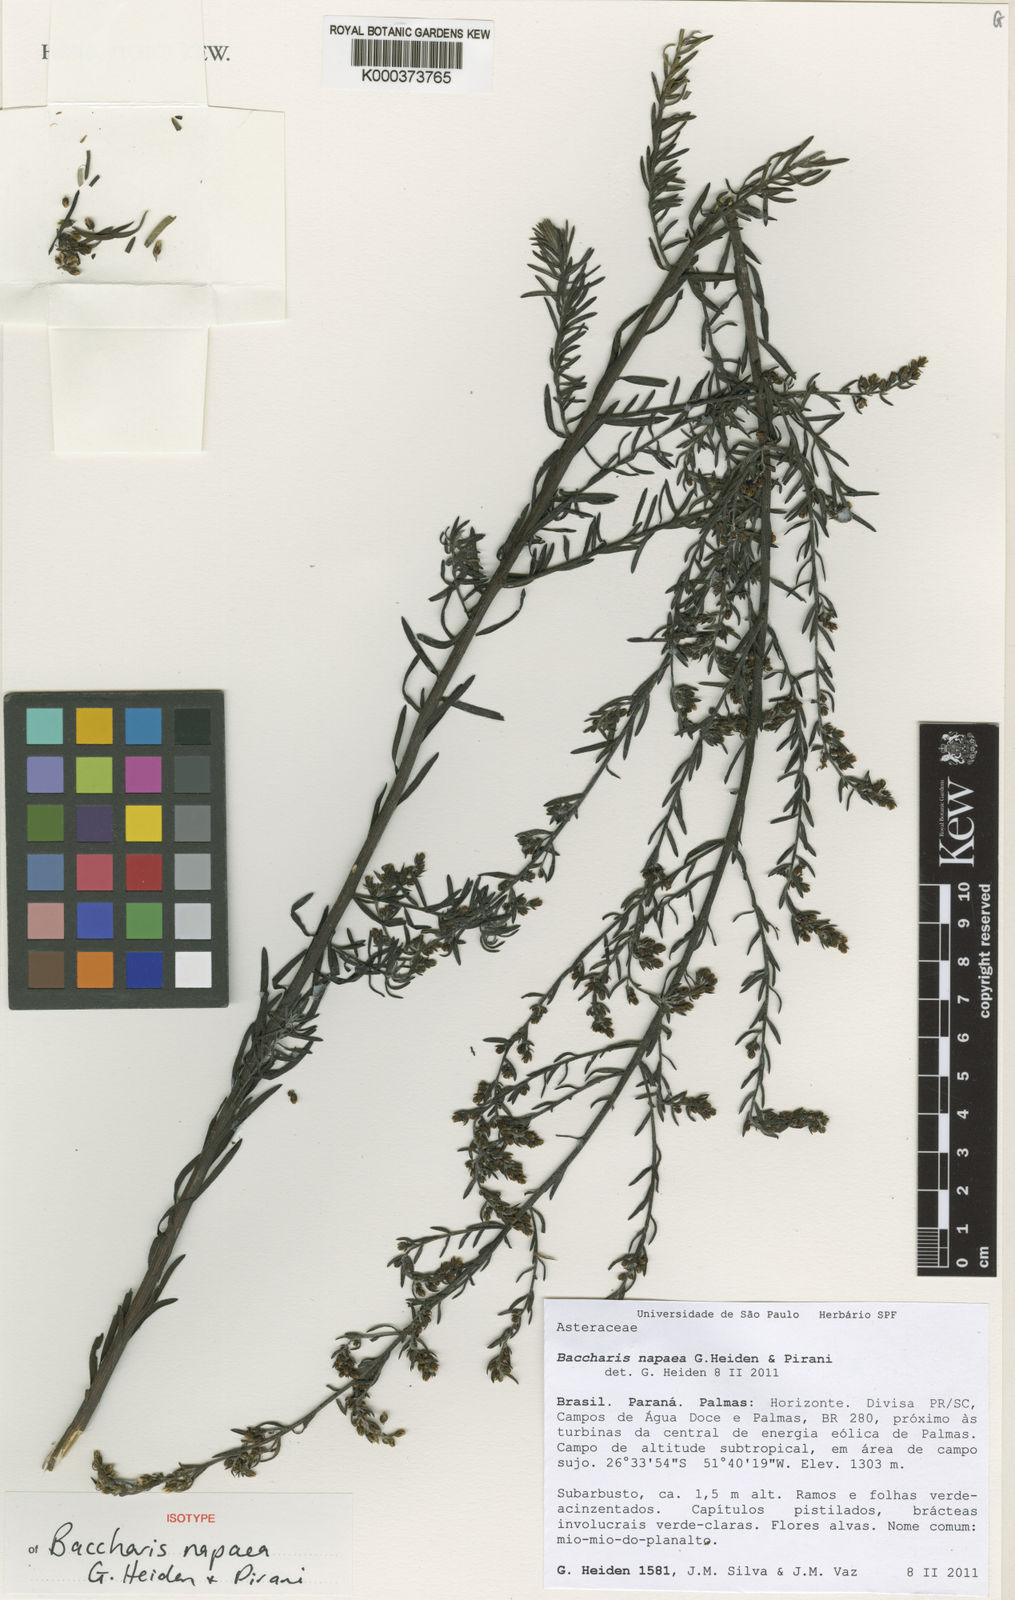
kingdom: Plantae
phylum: Tracheophyta
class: Magnoliopsida
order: Asterales
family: Asteraceae
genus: Baccharis
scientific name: Baccharis napaea
